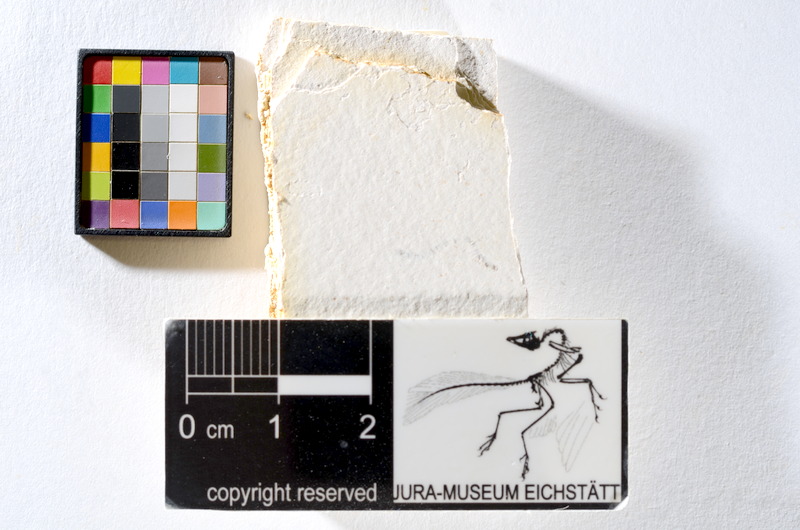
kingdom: Animalia
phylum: Chordata
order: Salmoniformes
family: Orthogonikleithridae
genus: Orthogonikleithrus
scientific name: Orthogonikleithrus hoelli
